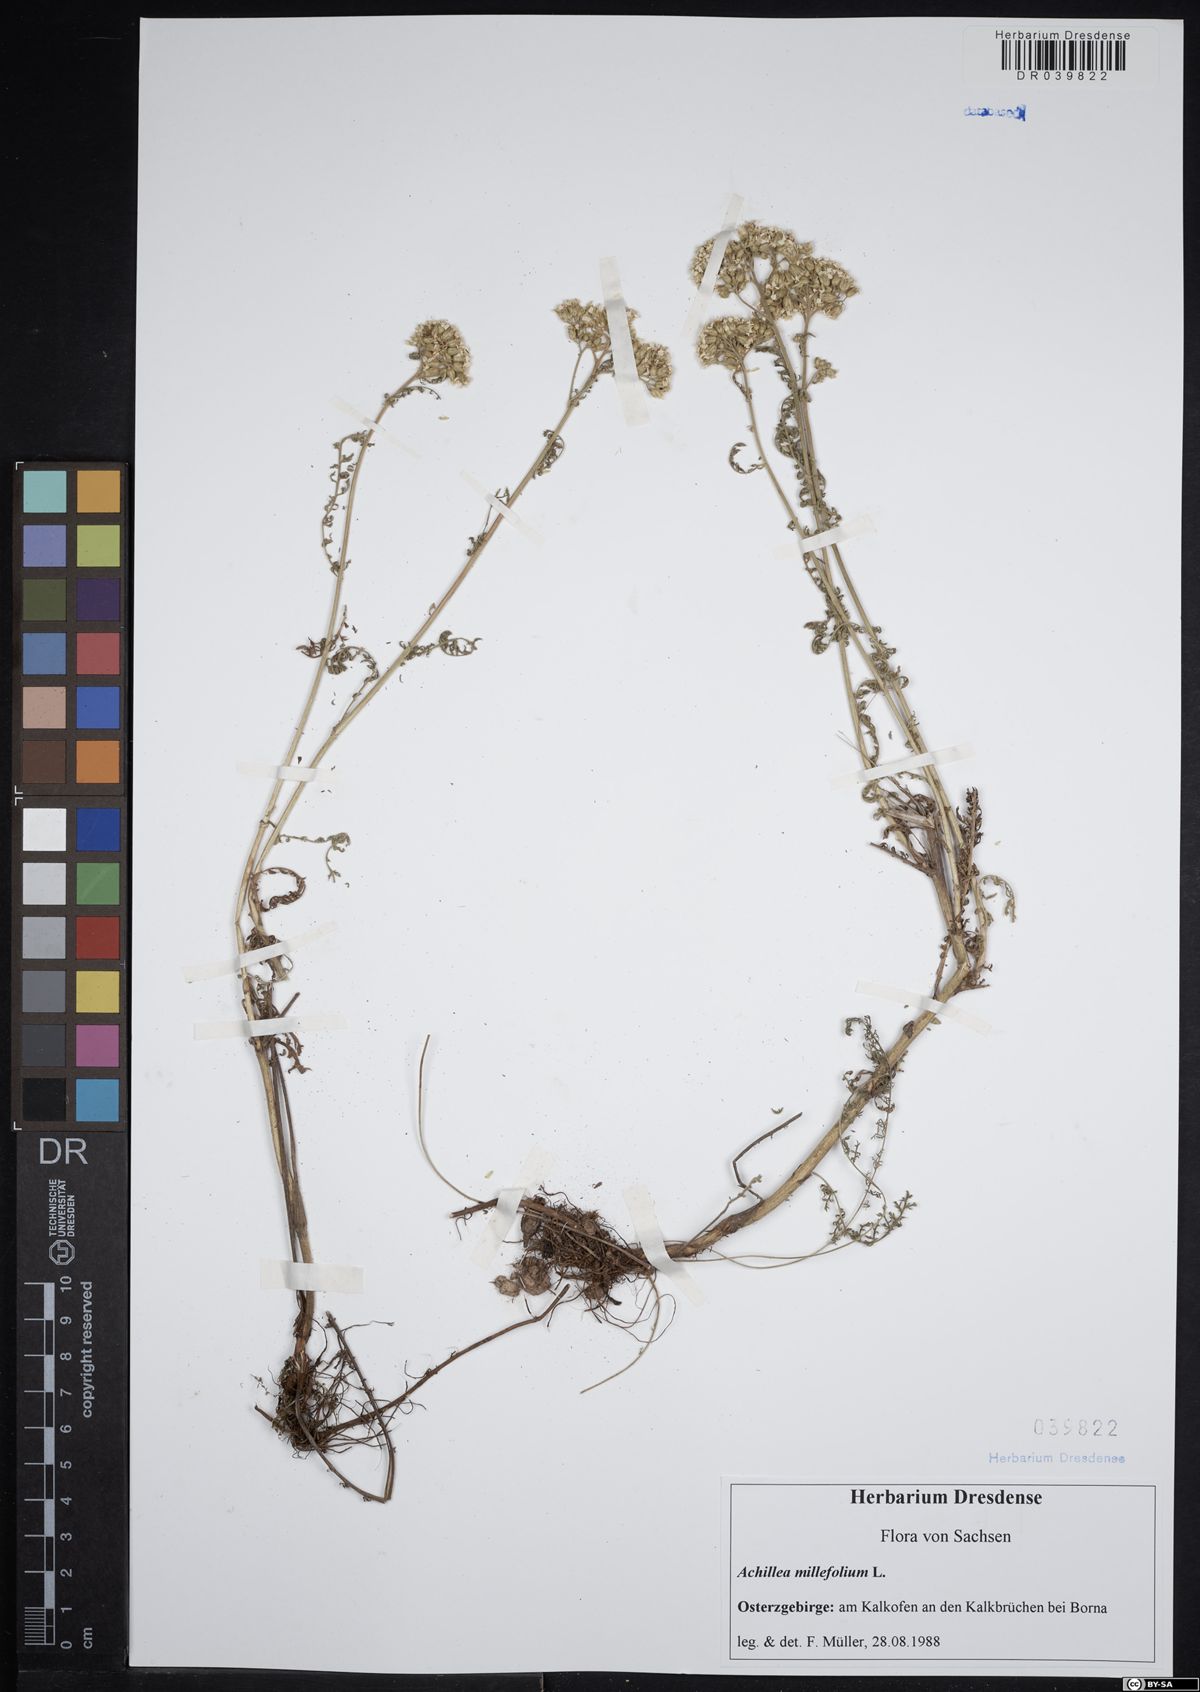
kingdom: Plantae
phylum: Tracheophyta
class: Magnoliopsida
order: Asterales
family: Asteraceae
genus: Achillea
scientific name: Achillea millefolium
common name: Yarrow
